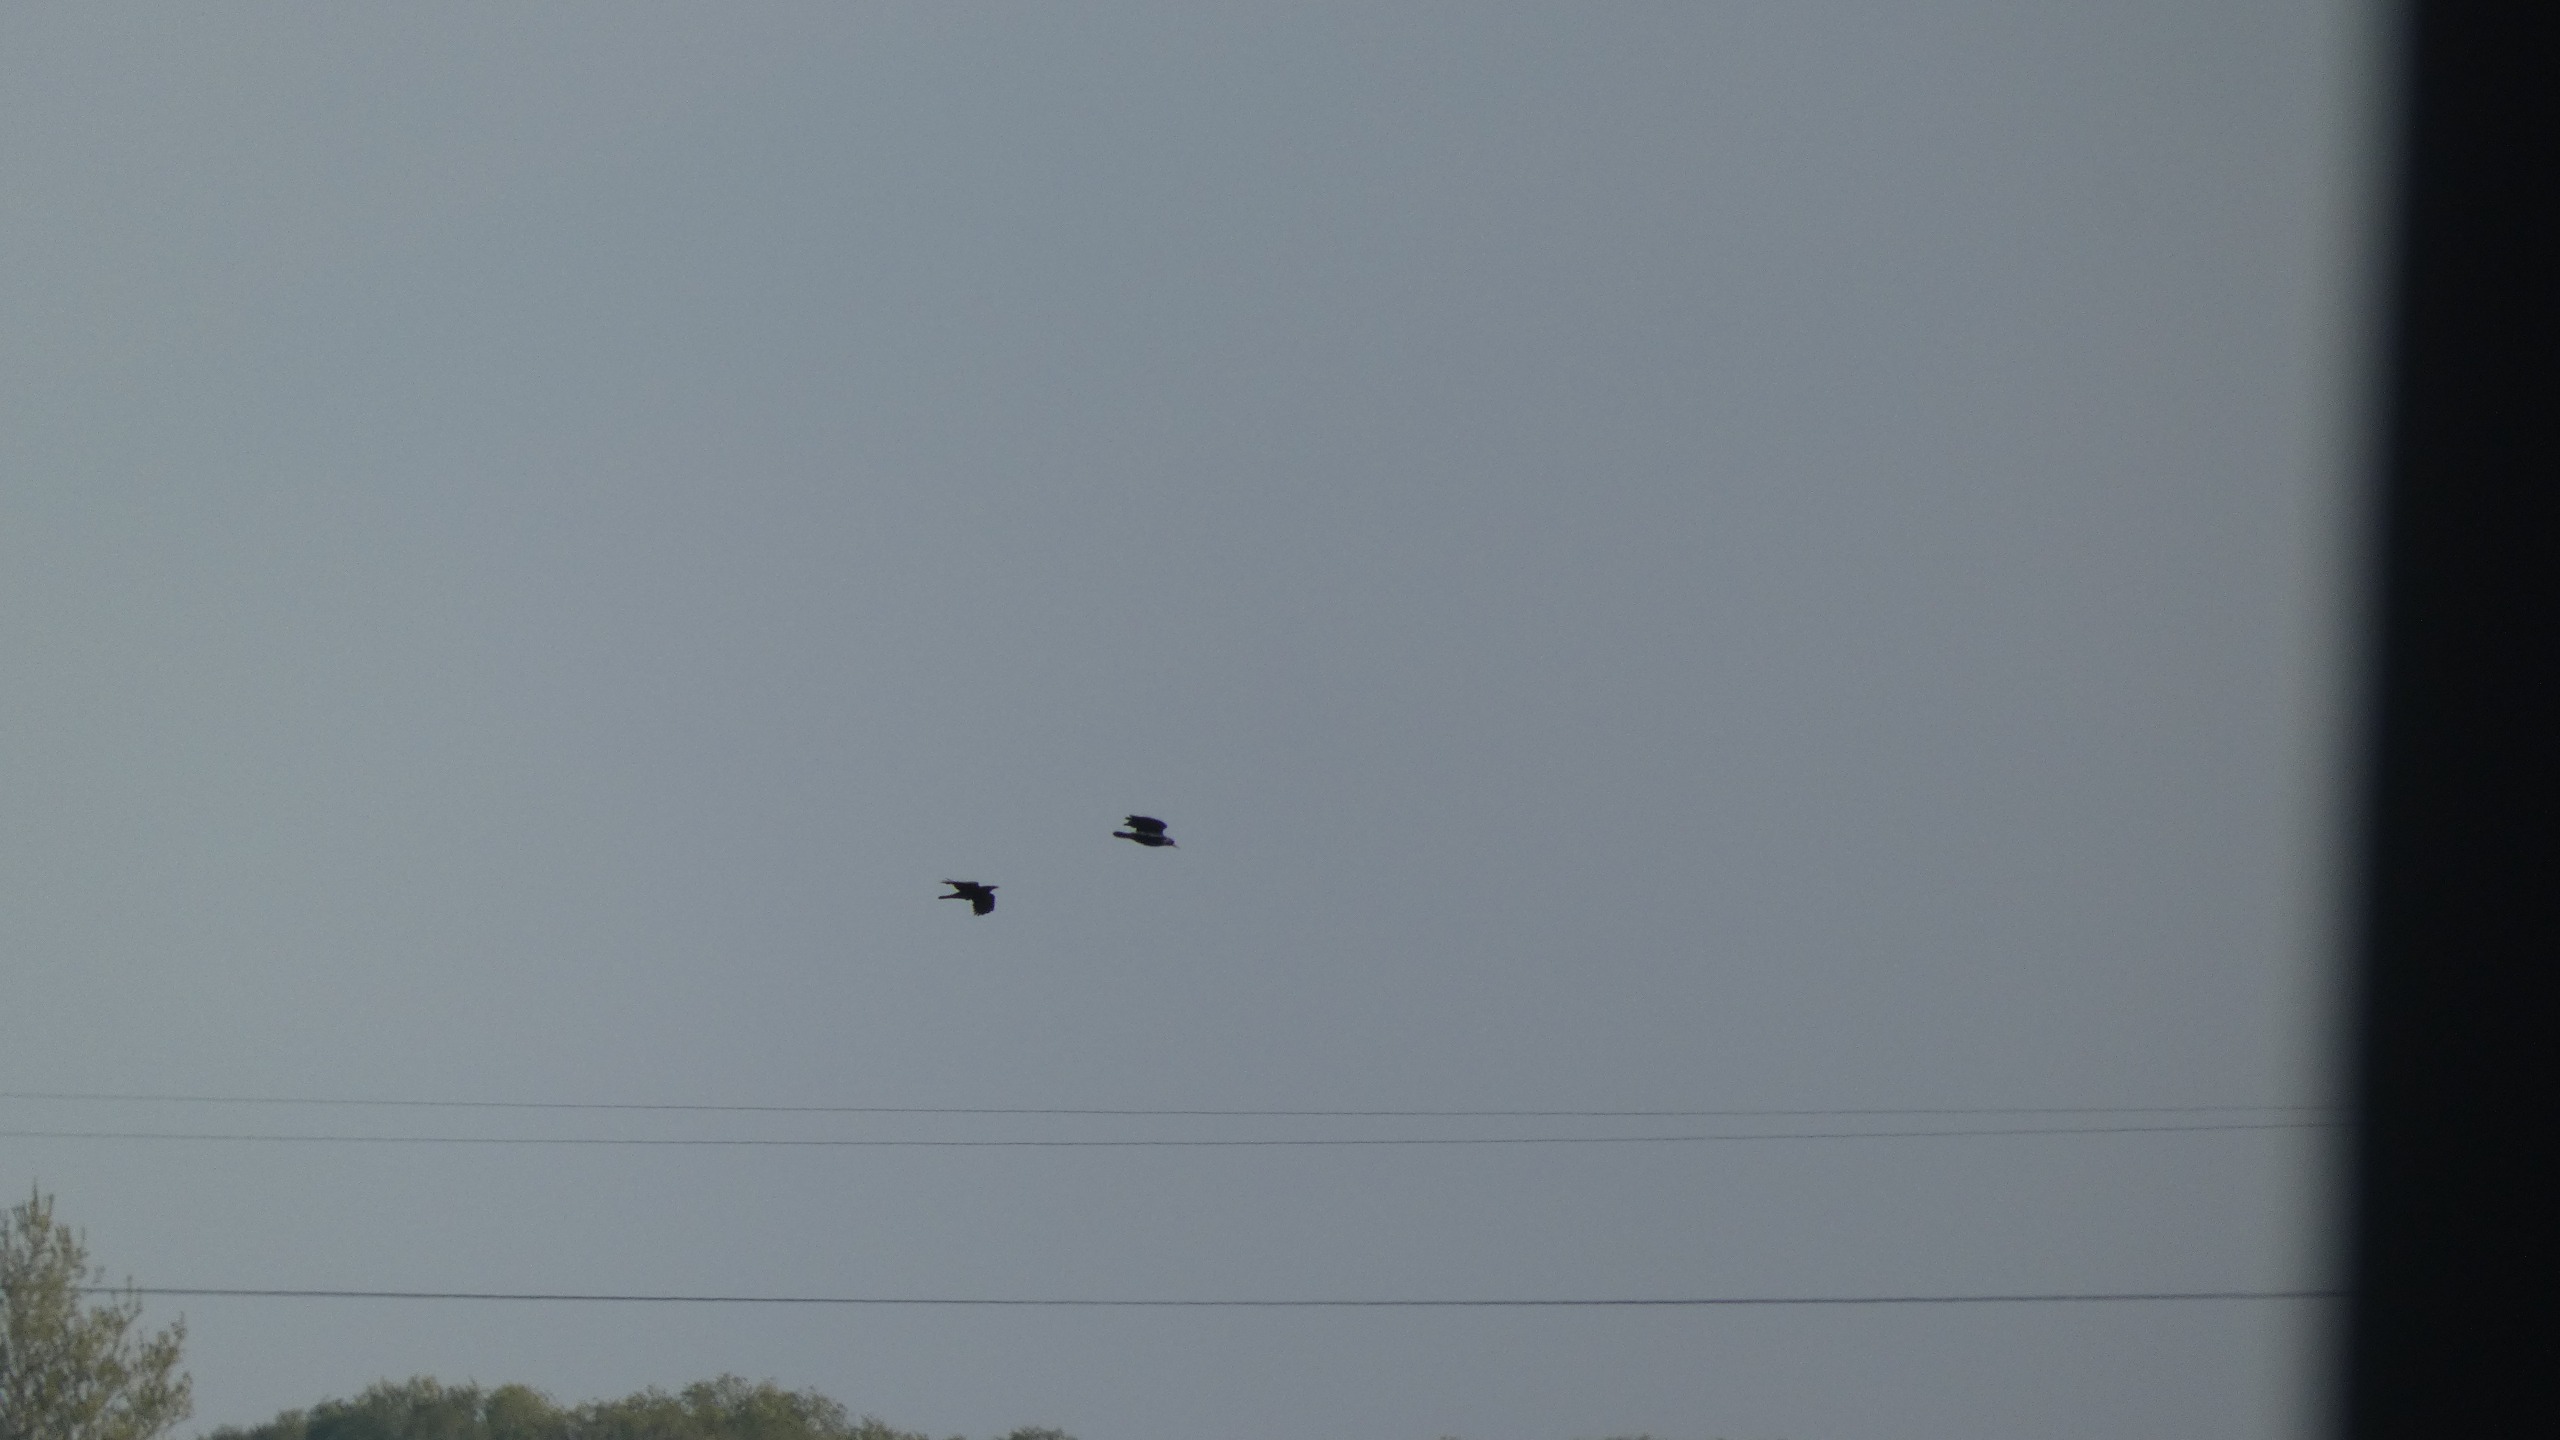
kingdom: Animalia
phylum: Chordata
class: Aves
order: Passeriformes
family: Corvidae
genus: Corvus
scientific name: Corvus frugilegus
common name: Råge
